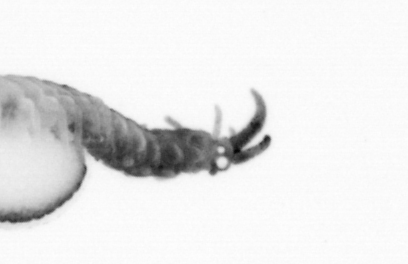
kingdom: Animalia
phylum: Annelida
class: Polychaeta
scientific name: Polychaeta
